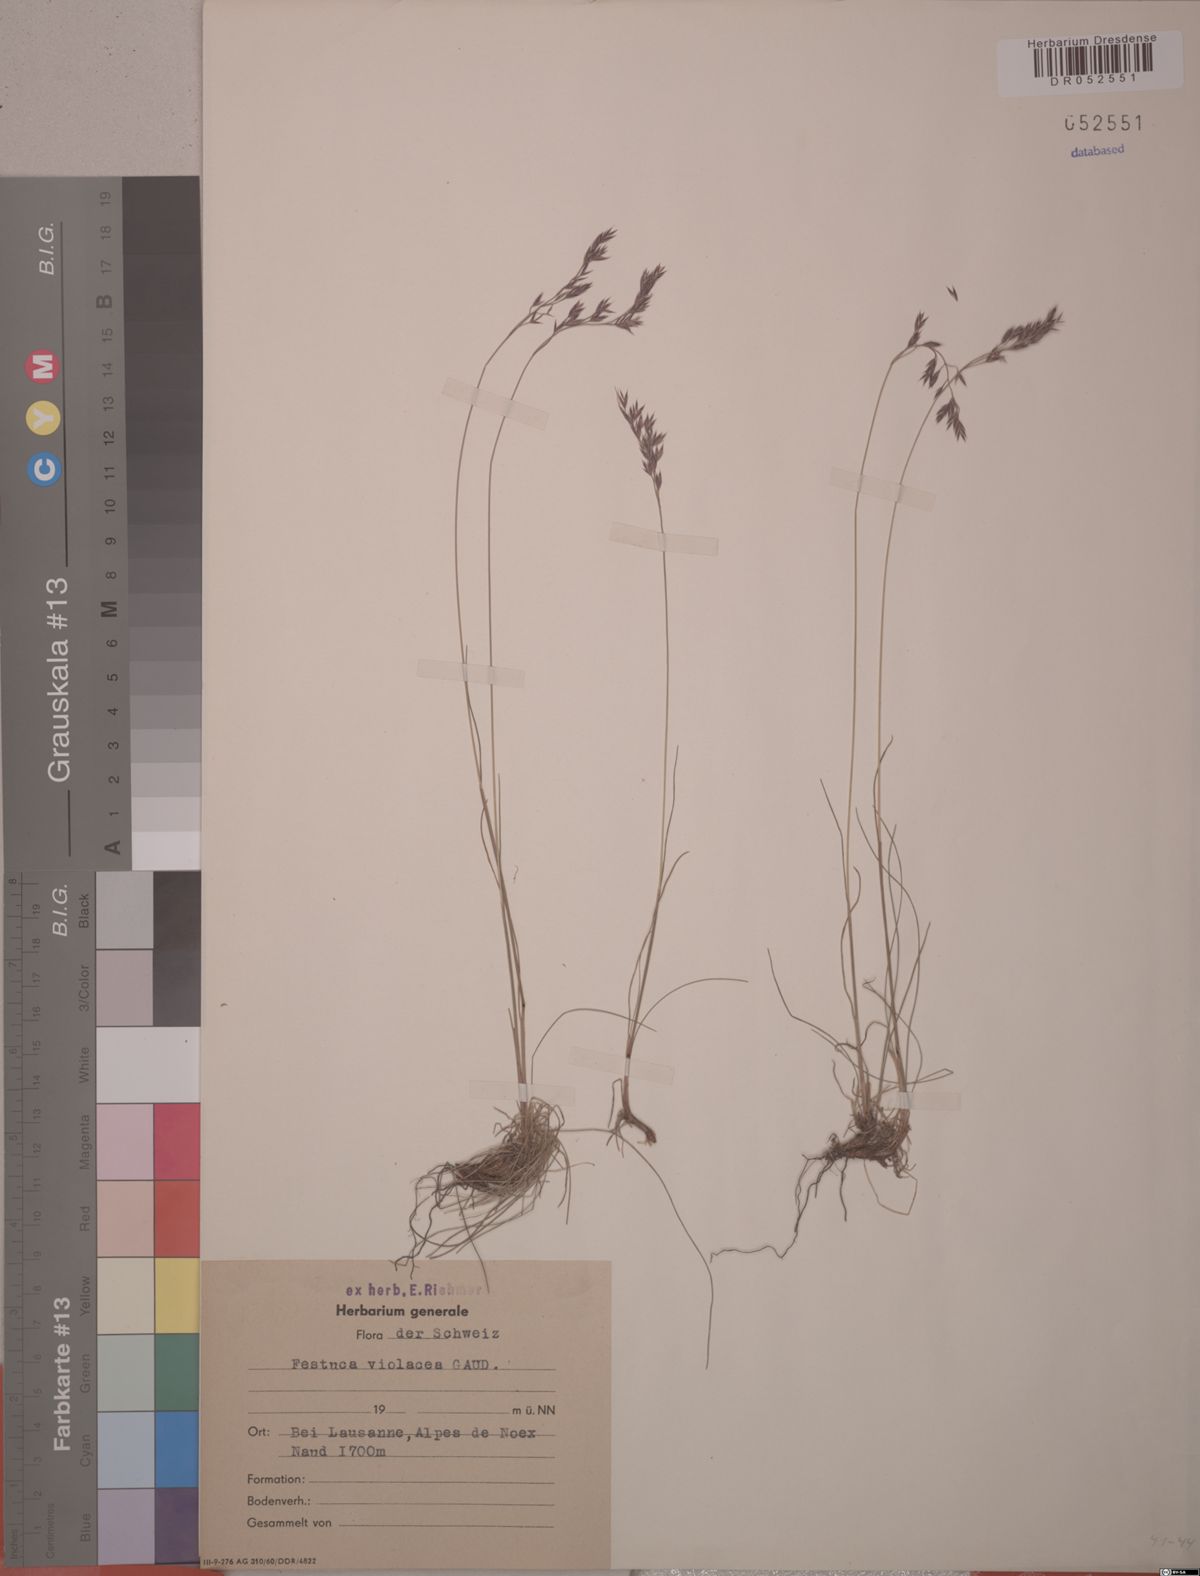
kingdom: Plantae
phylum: Tracheophyta
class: Liliopsida
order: Poales
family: Poaceae
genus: Festuca
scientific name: Festuca violacea
